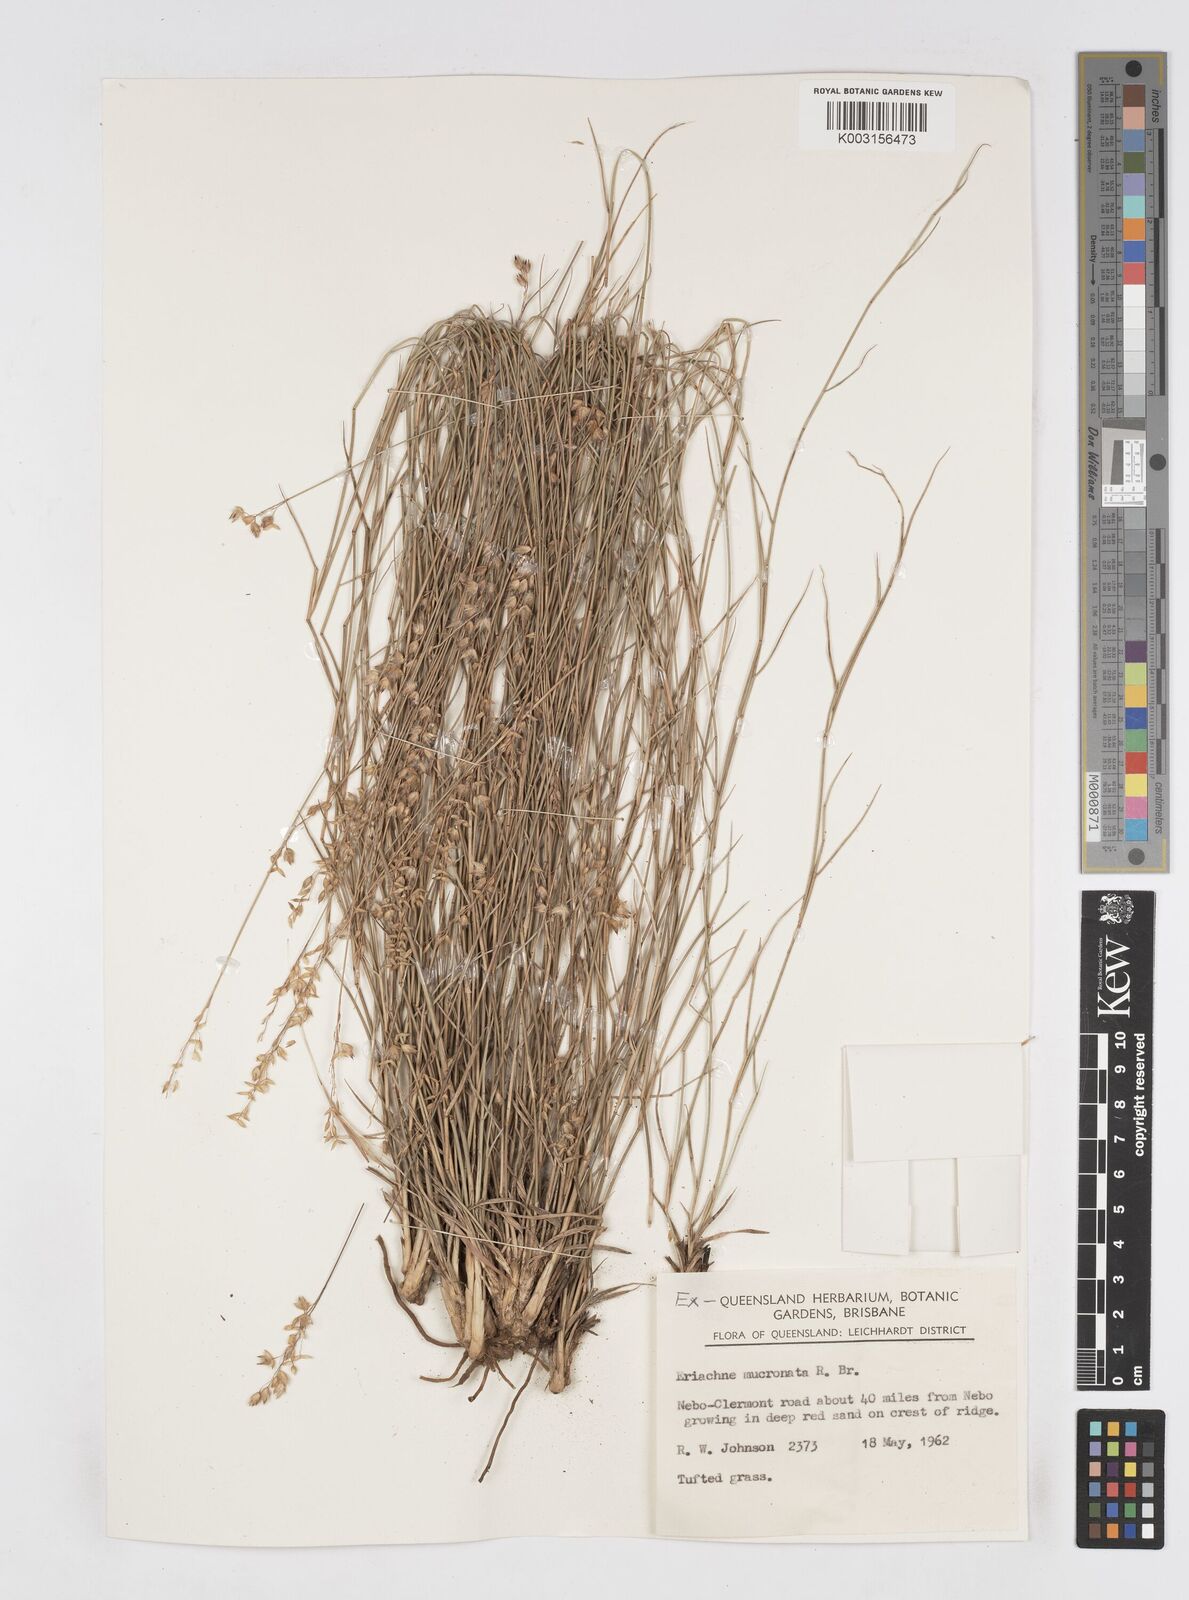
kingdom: Plantae
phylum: Tracheophyta
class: Liliopsida
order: Poales
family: Poaceae
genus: Eriachne
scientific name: Eriachne mucronata
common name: Mountain wanderrie grass
